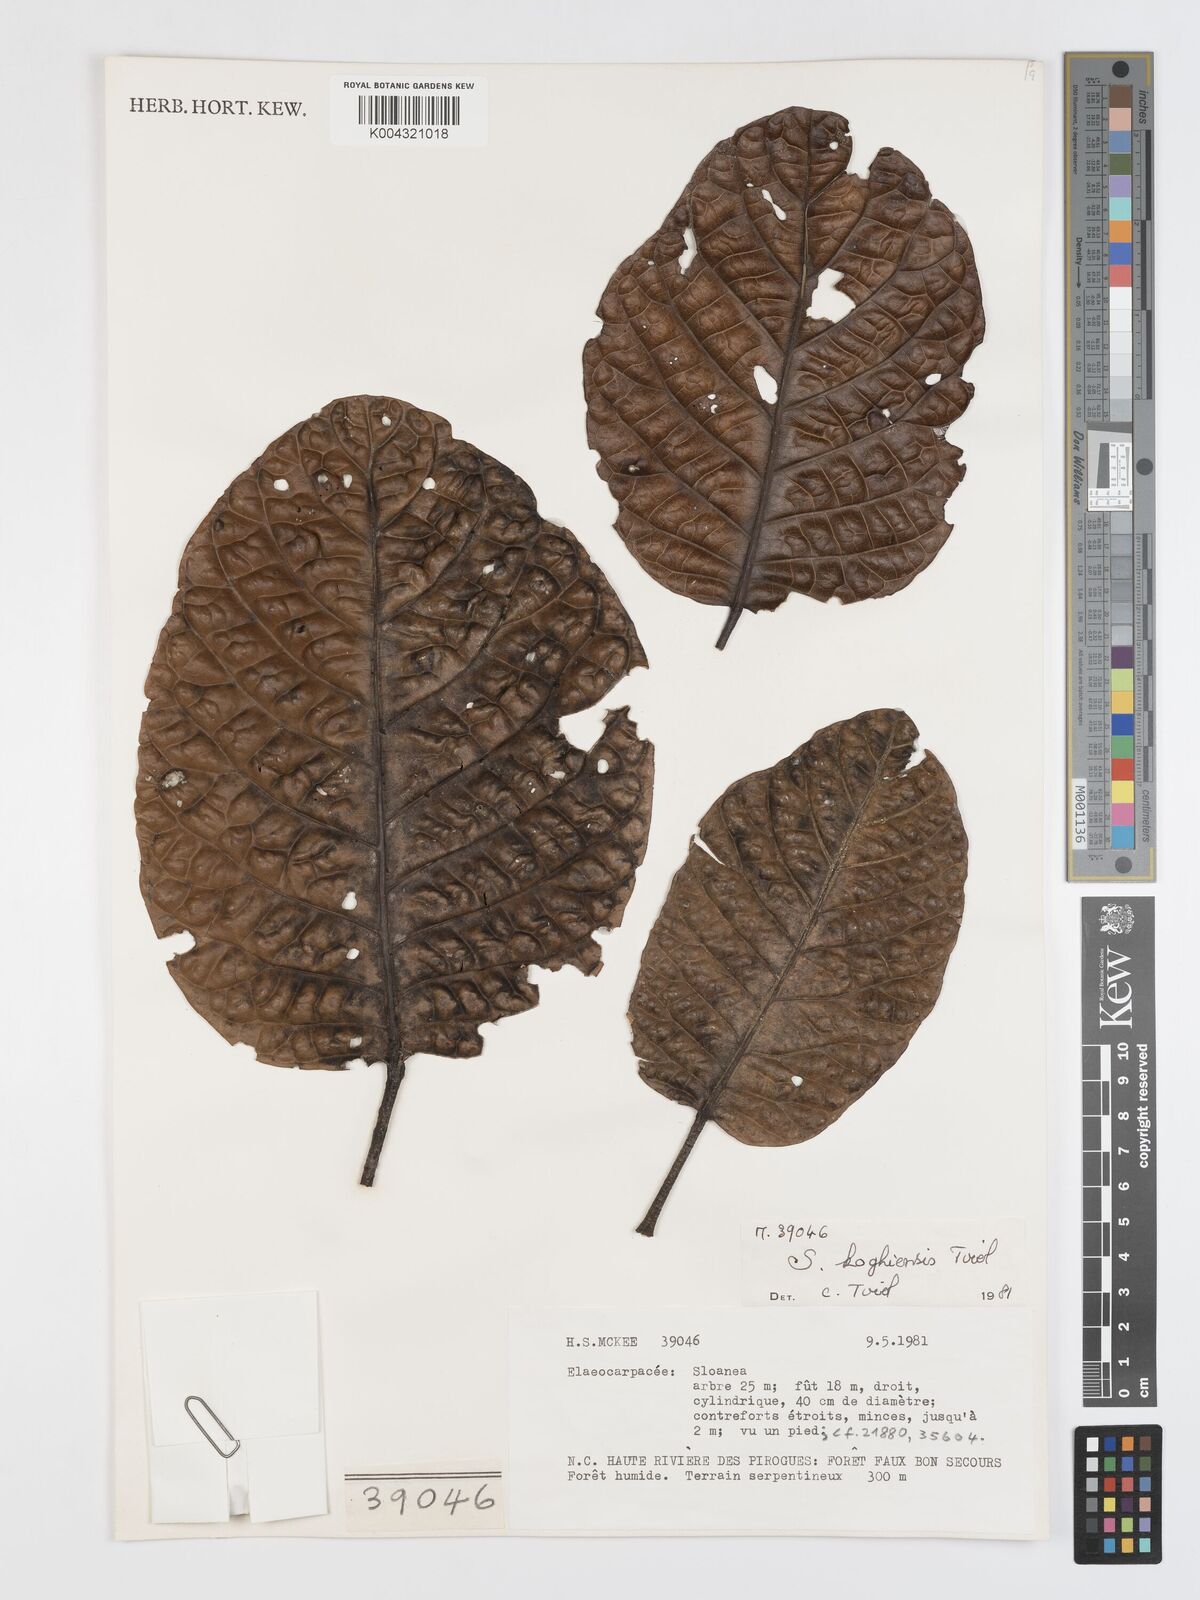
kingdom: Plantae
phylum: Tracheophyta
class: Magnoliopsida
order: Oxalidales
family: Elaeocarpaceae
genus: Sloanea
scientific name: Sloanea koghiensis
